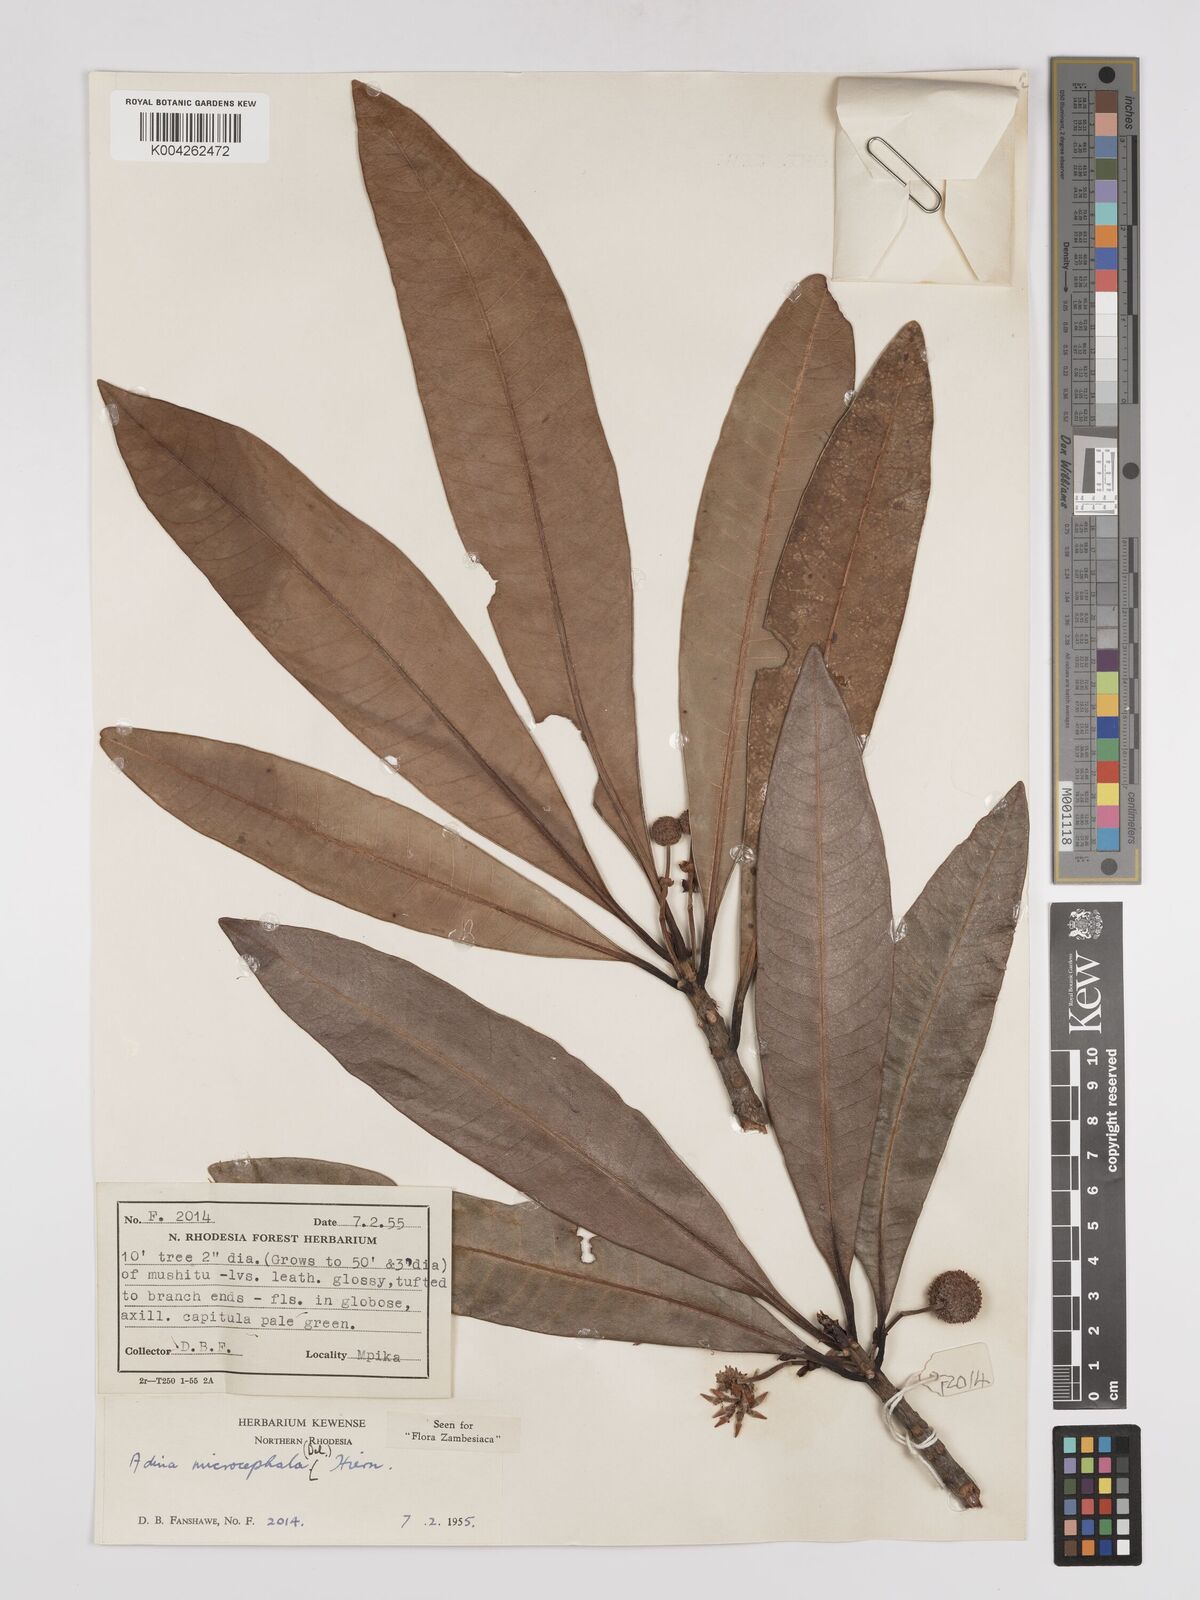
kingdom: Plantae
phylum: Tracheophyta
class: Magnoliopsida
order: Gentianales
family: Rubiaceae
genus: Breonadia
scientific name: Breonadia salicina
